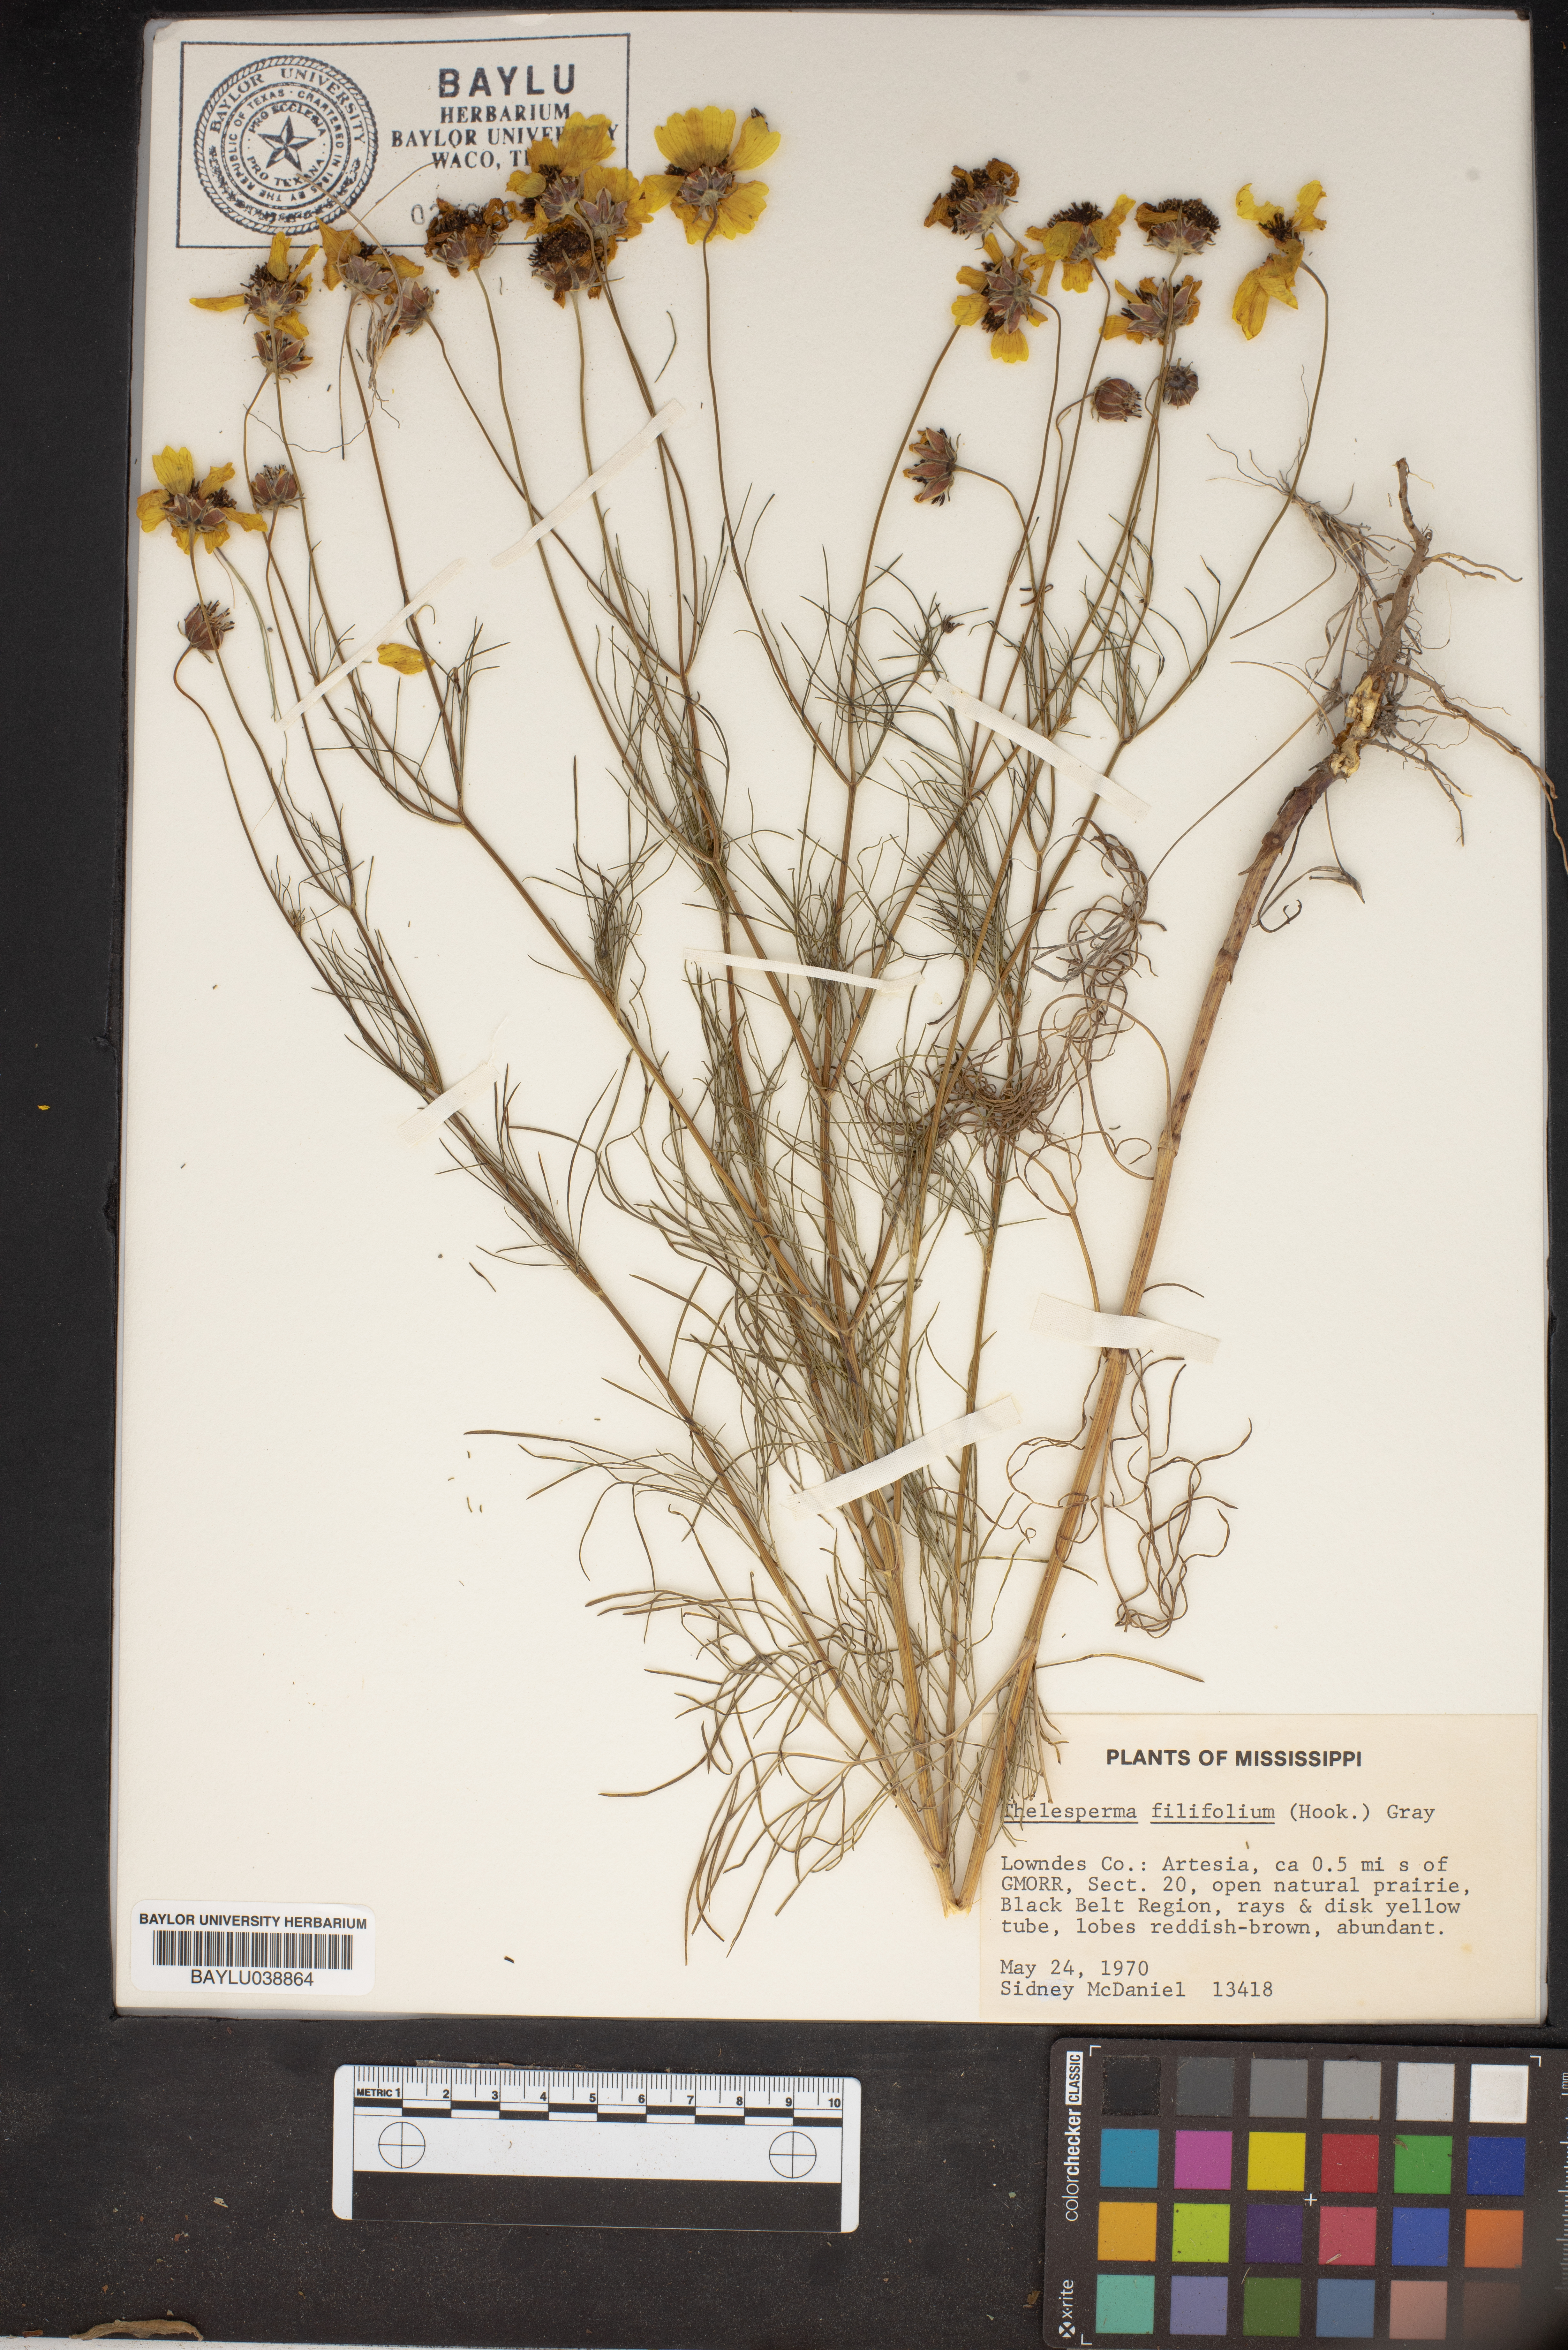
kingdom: Plantae
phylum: Tracheophyta
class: Magnoliopsida
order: Asterales
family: Asteraceae
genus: Thelesperma
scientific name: Thelesperma filifolium
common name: Stiff greenthread
